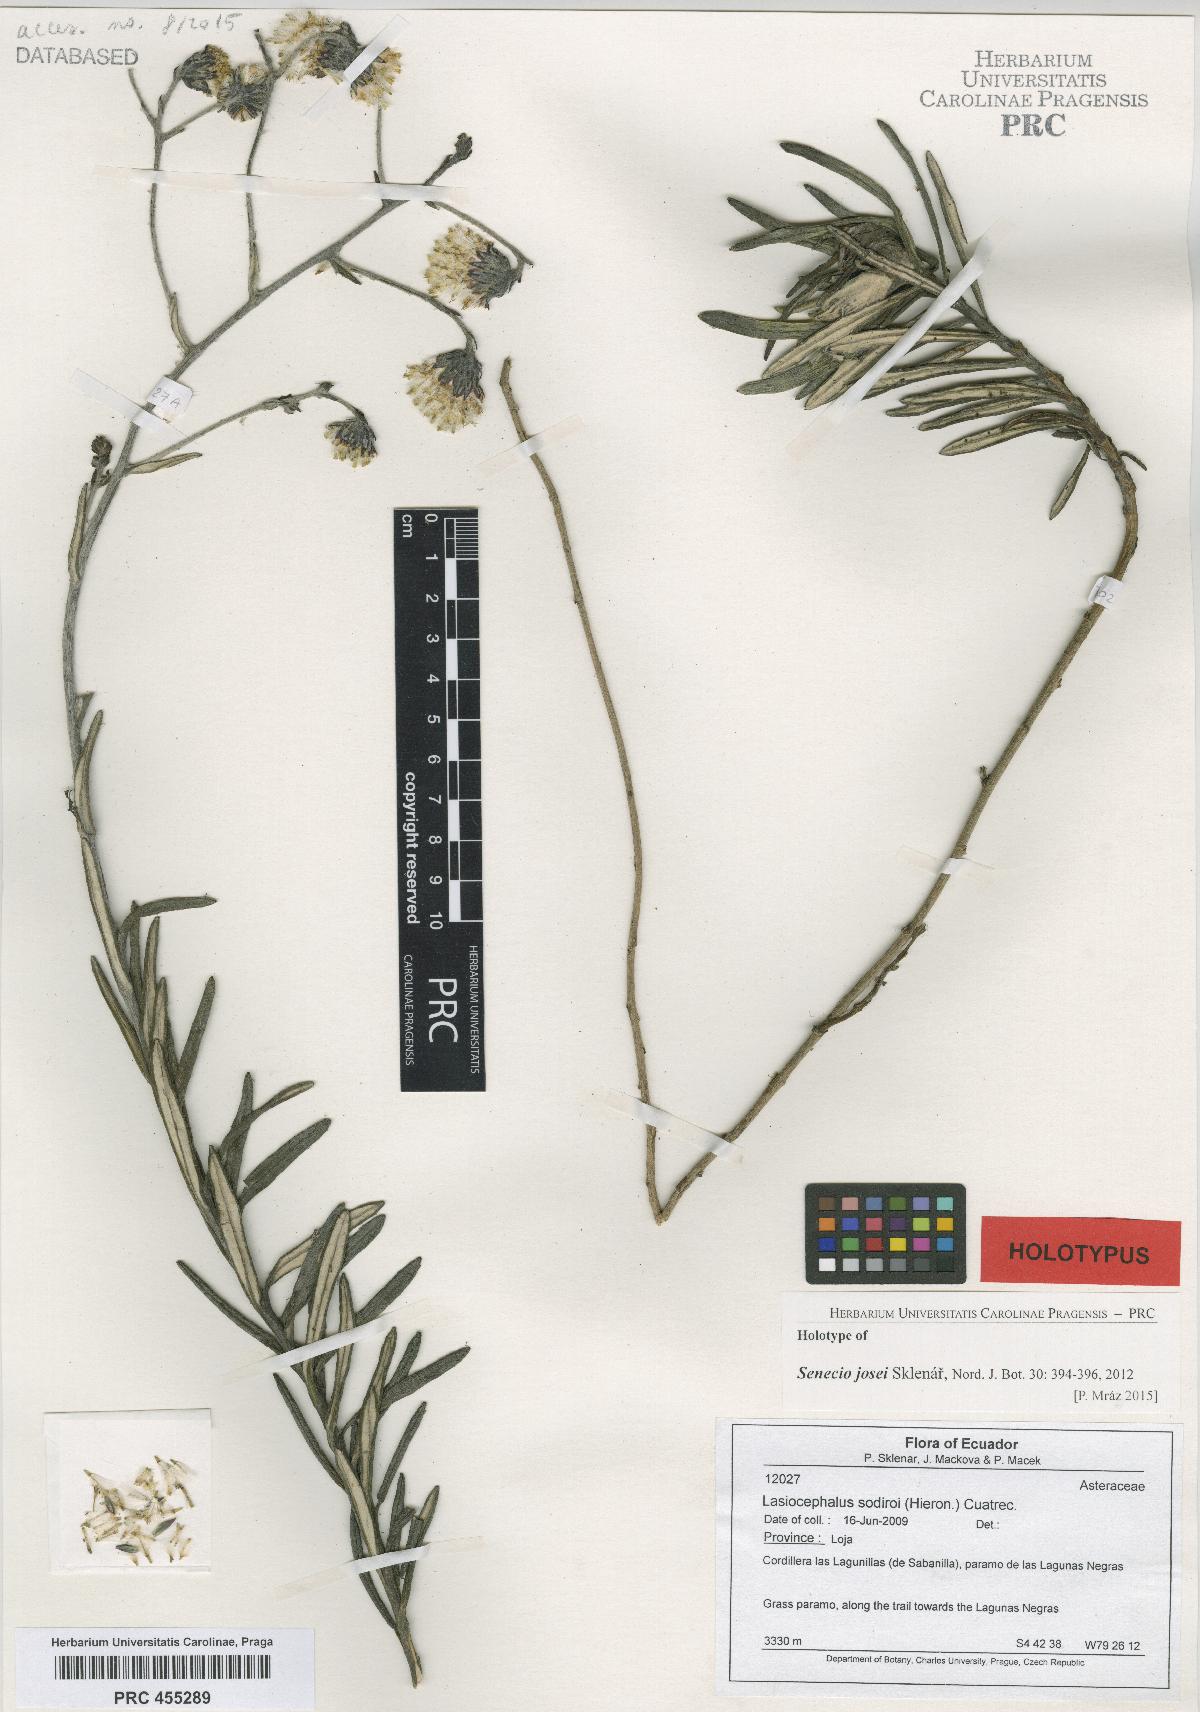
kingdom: Plantae
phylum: Tracheophyta
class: Magnoliopsida
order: Asterales
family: Asteraceae
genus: Lasiocephalus
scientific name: Lasiocephalus peruvianus
